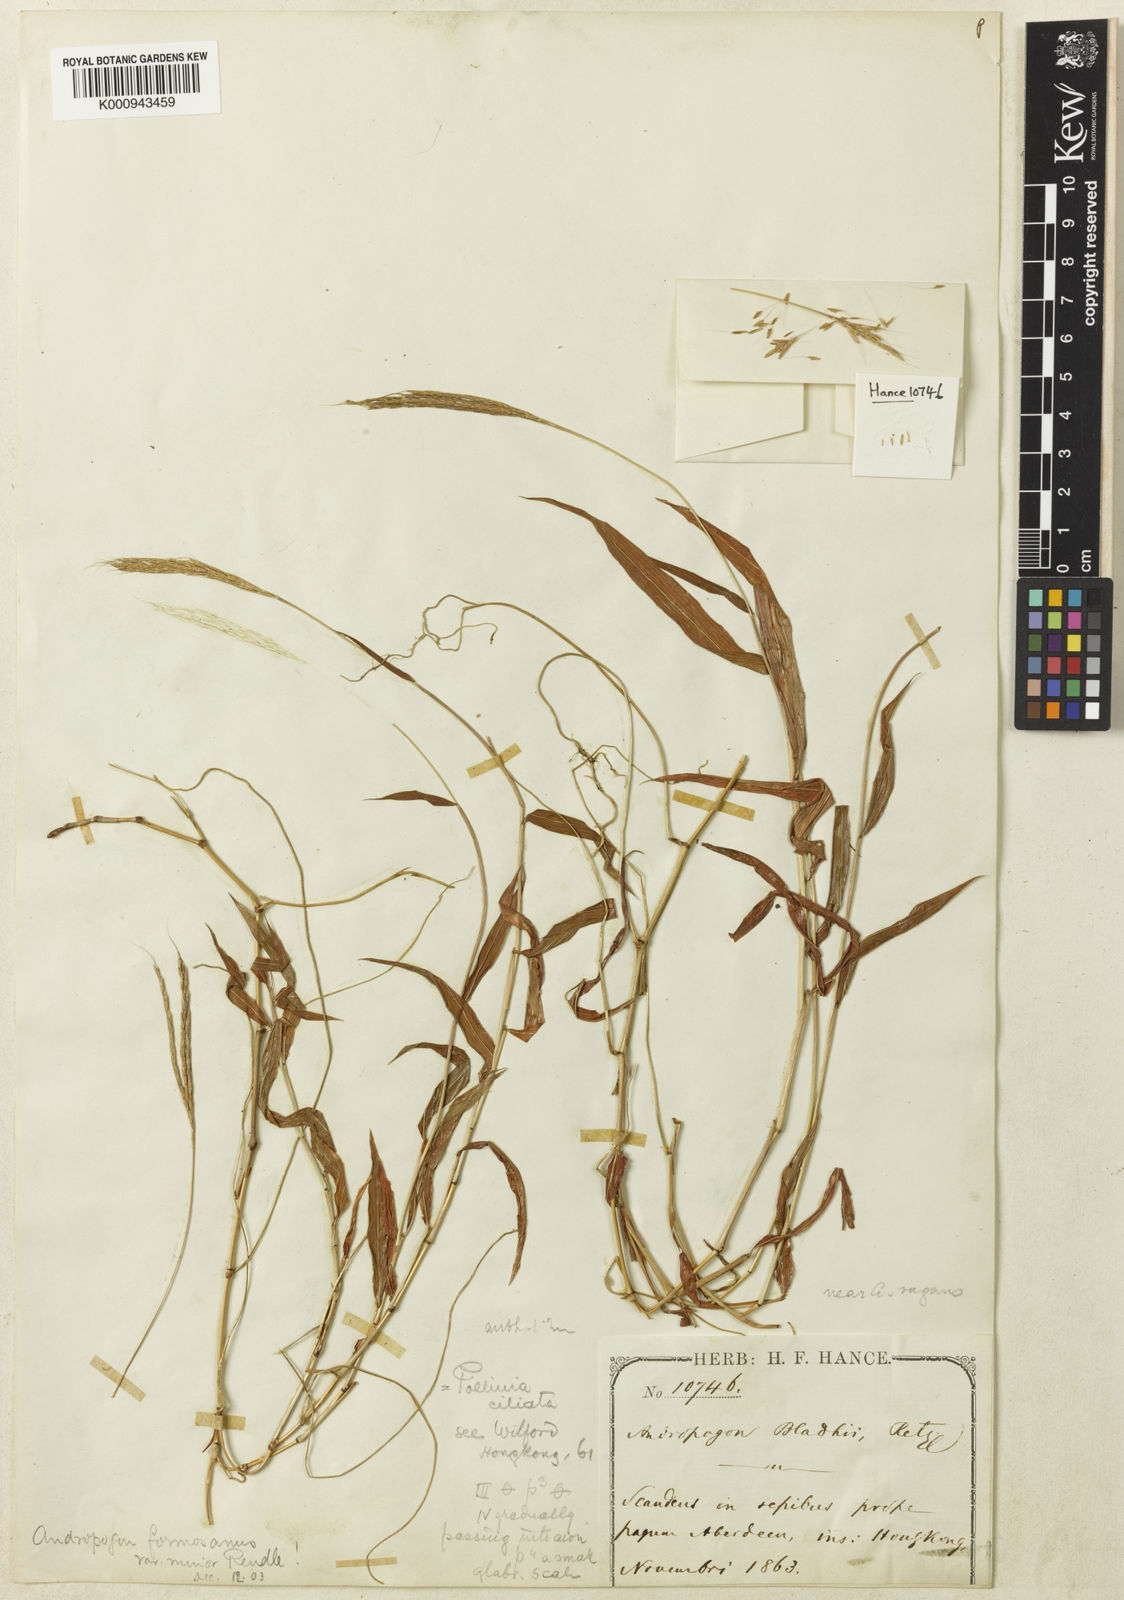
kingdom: Plantae
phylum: Tracheophyta
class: Liliopsida
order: Poales
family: Poaceae
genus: Microstegium
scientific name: Microstegium fasciculatum
